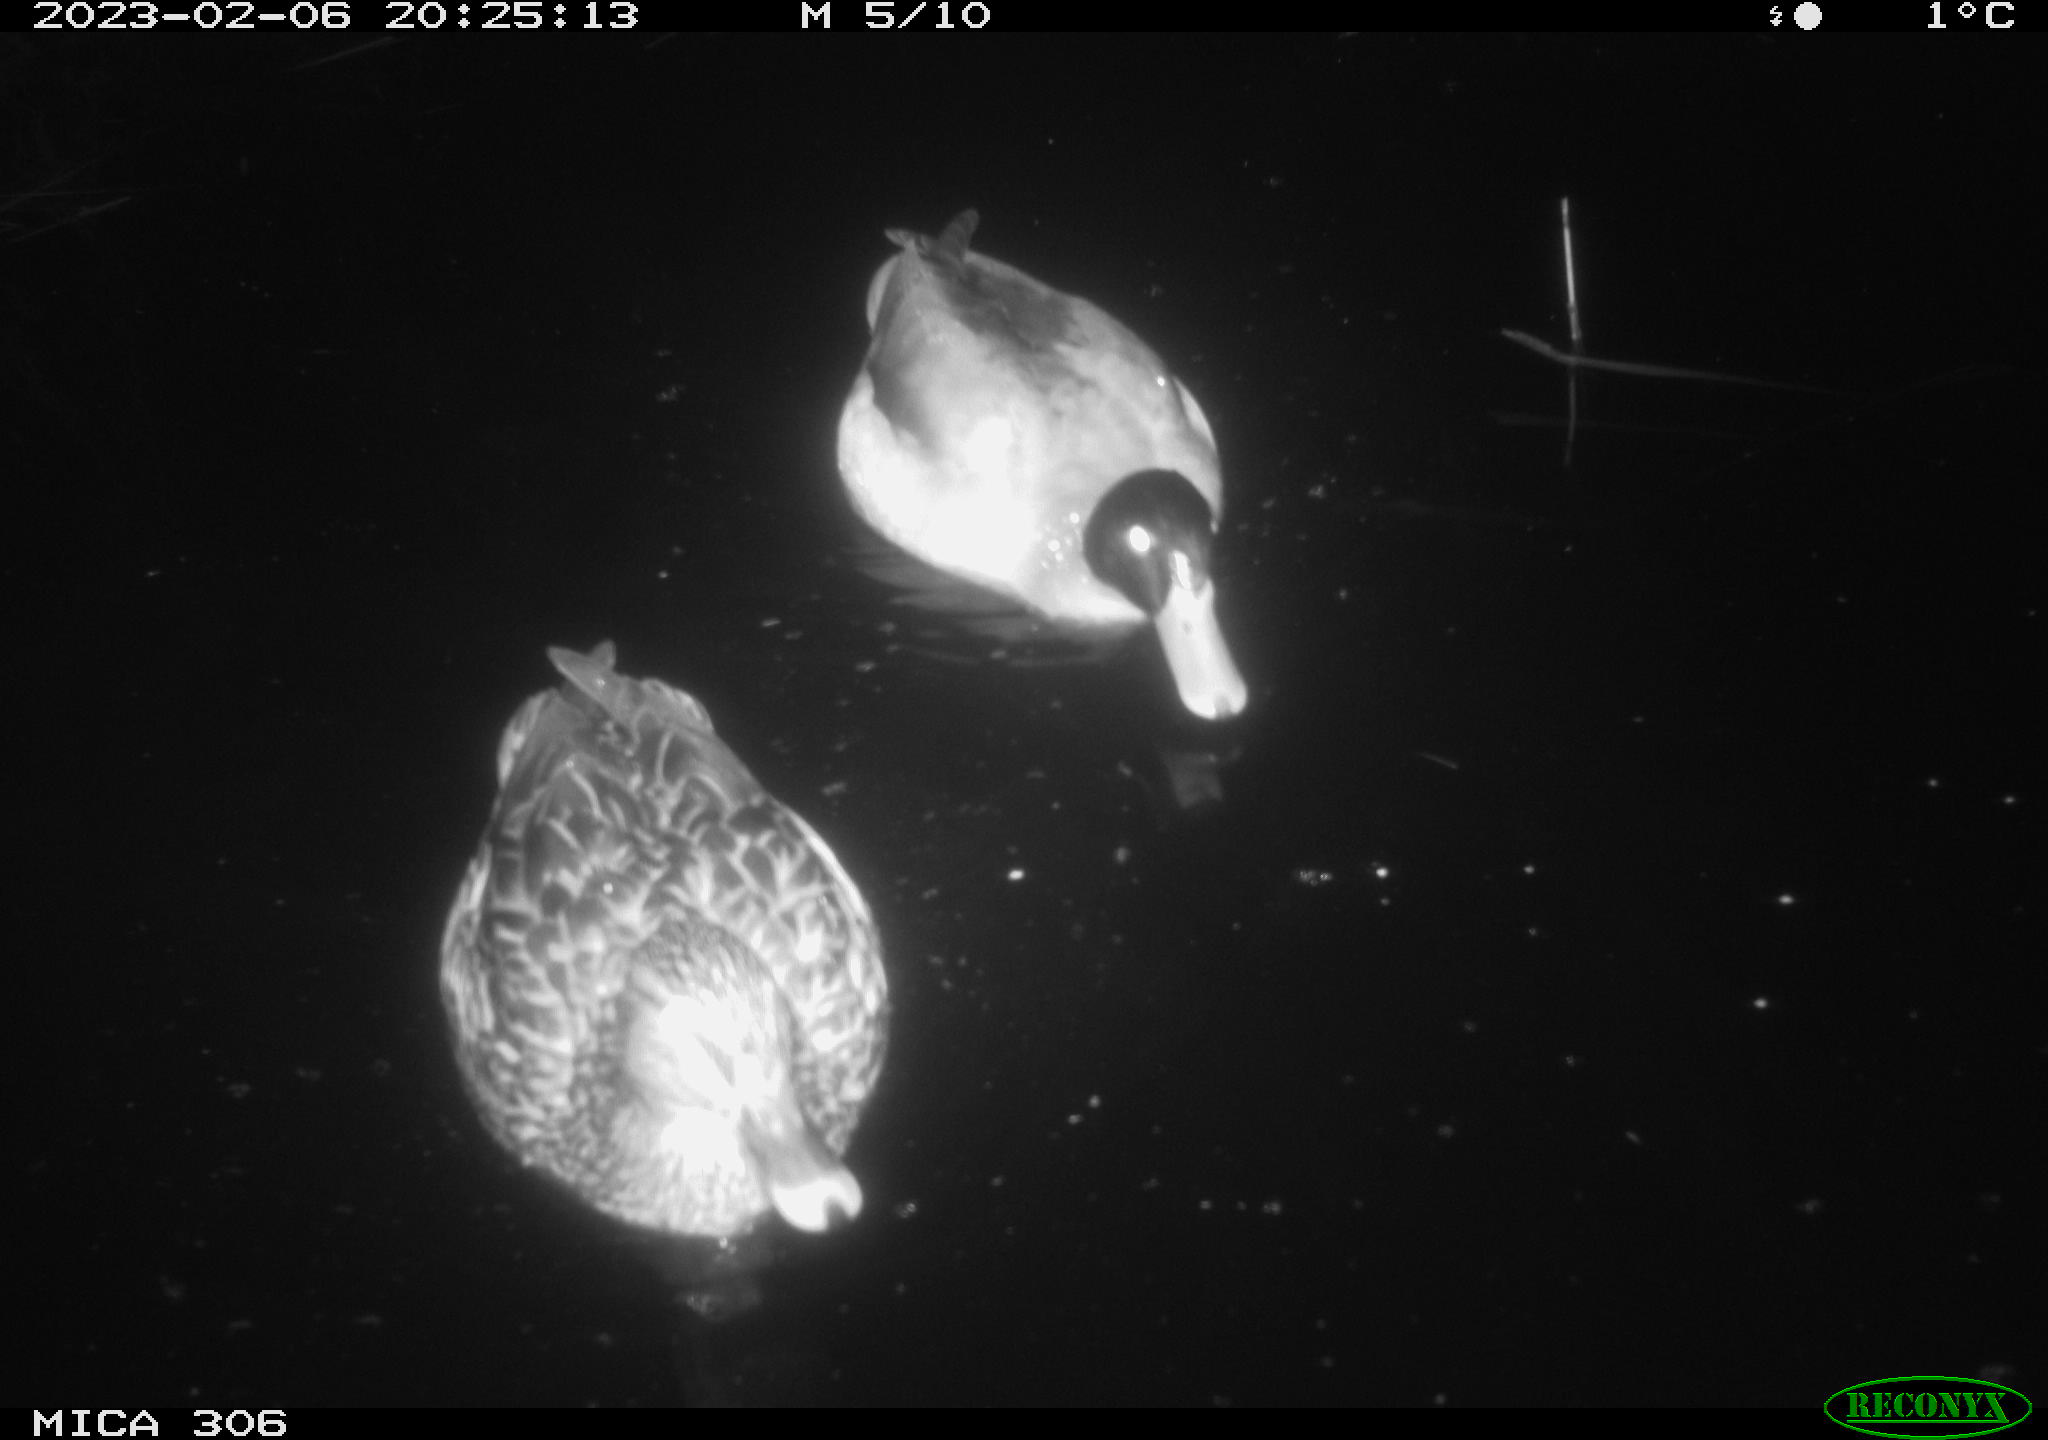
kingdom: Animalia
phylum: Chordata
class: Mammalia
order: Rodentia
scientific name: Rodentia
